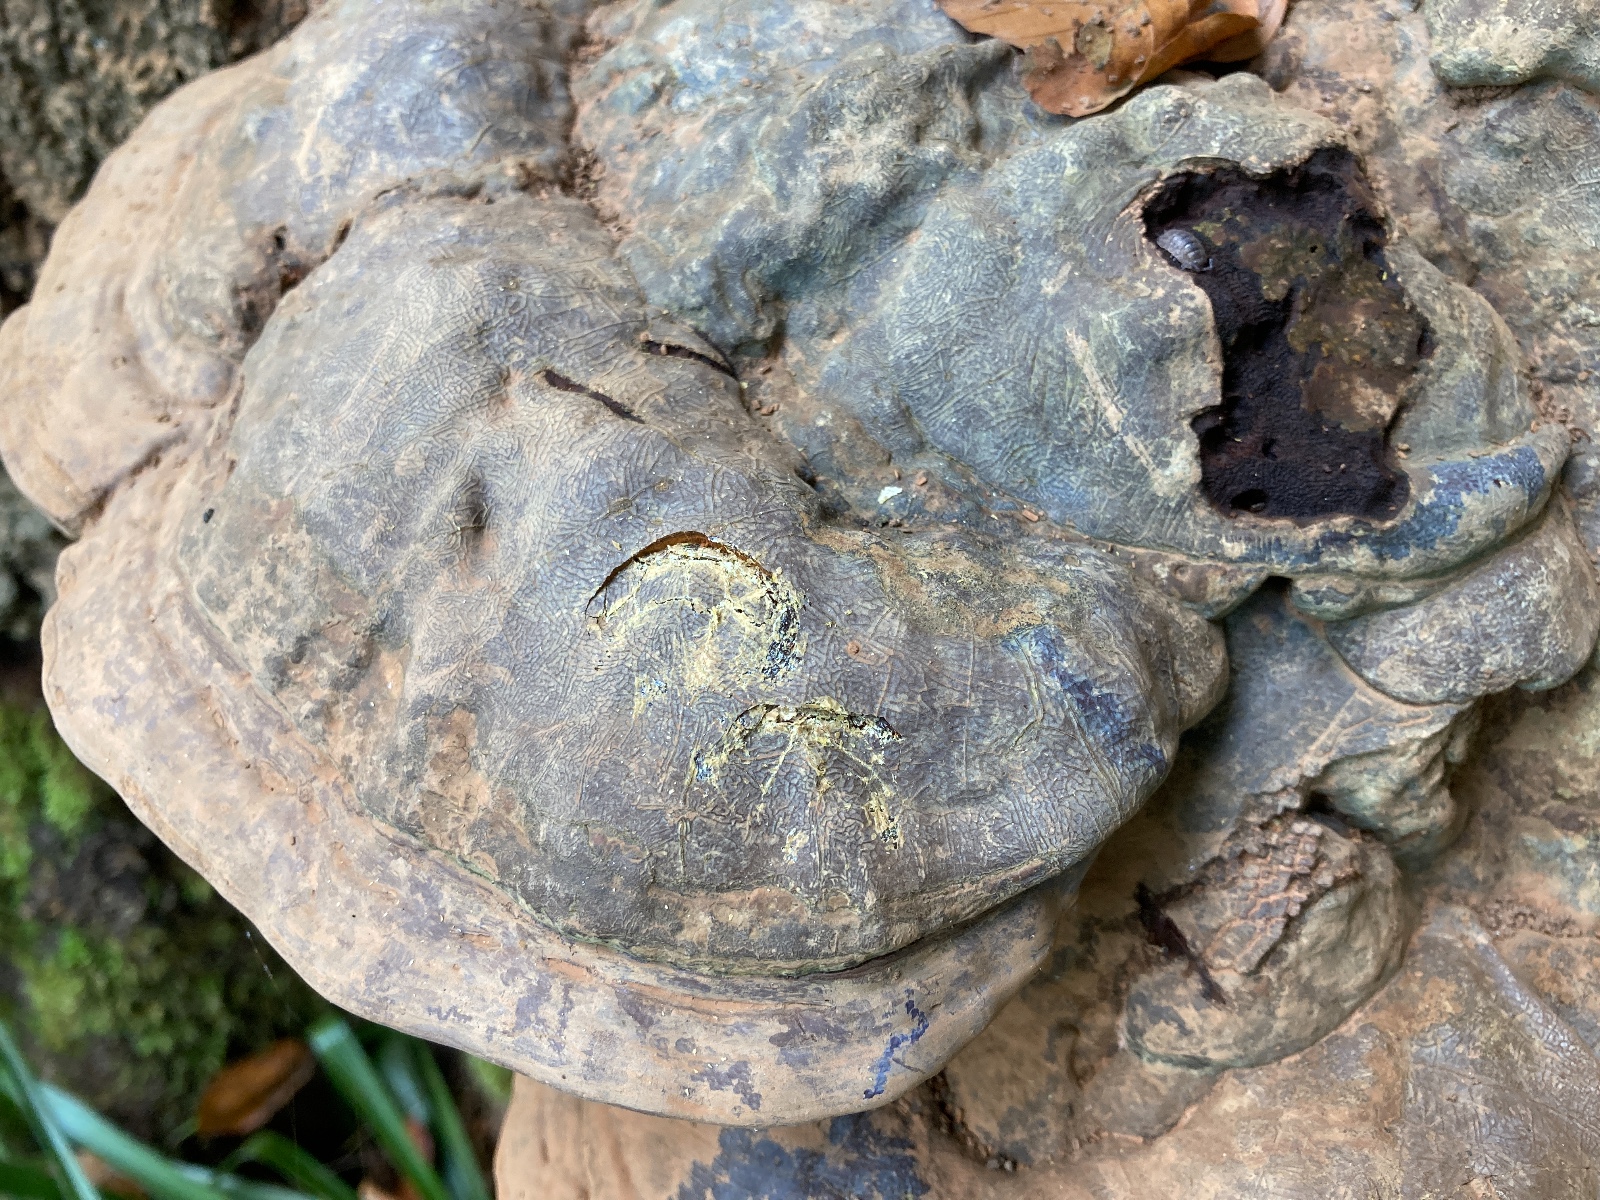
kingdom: Fungi
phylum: Basidiomycota
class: Agaricomycetes
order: Polyporales
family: Polyporaceae
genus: Ganoderma
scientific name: Ganoderma pfeifferi
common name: kobberrød lakporesvamp
